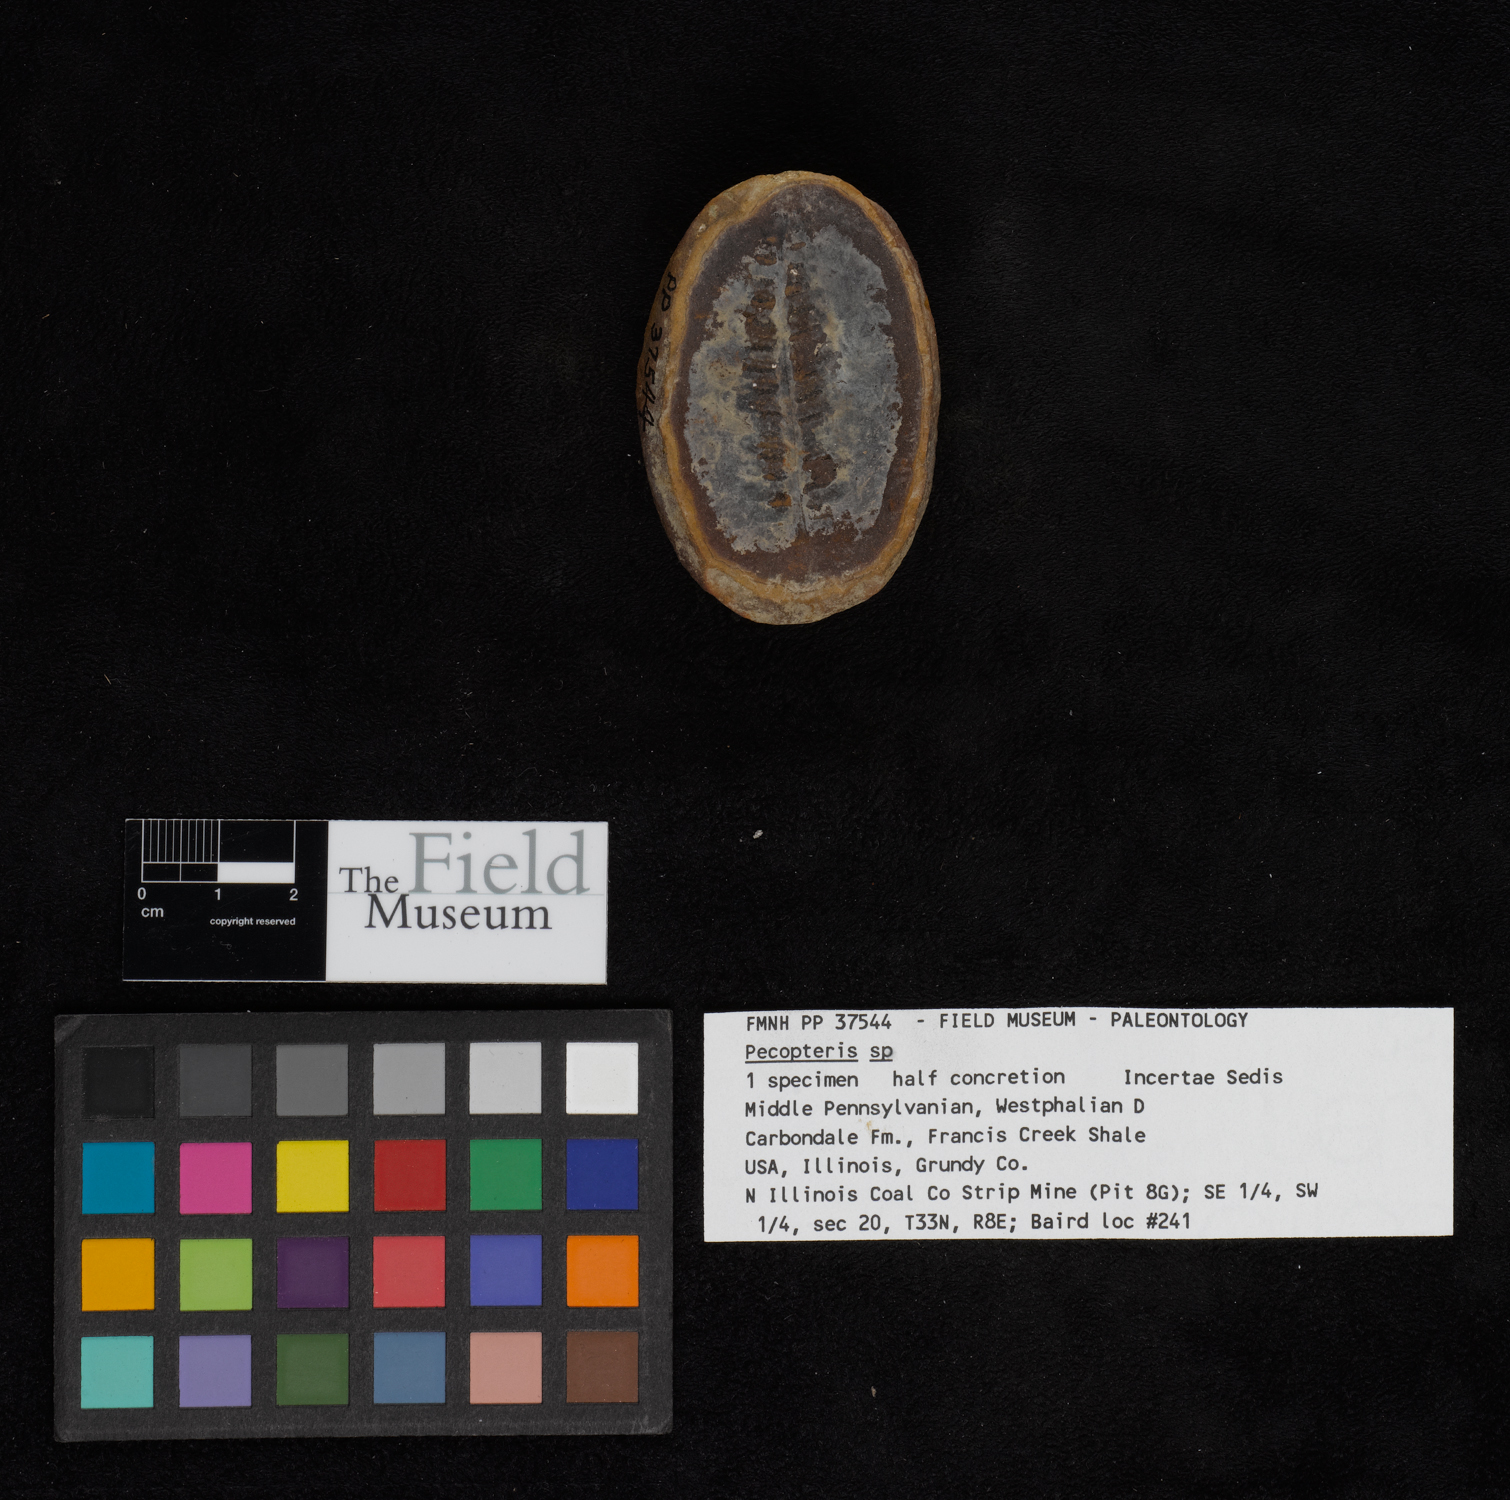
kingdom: Plantae
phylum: Tracheophyta
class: Polypodiopsida
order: Marattiales
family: Asterothecaceae
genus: Pecopteris
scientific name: Pecopteris
